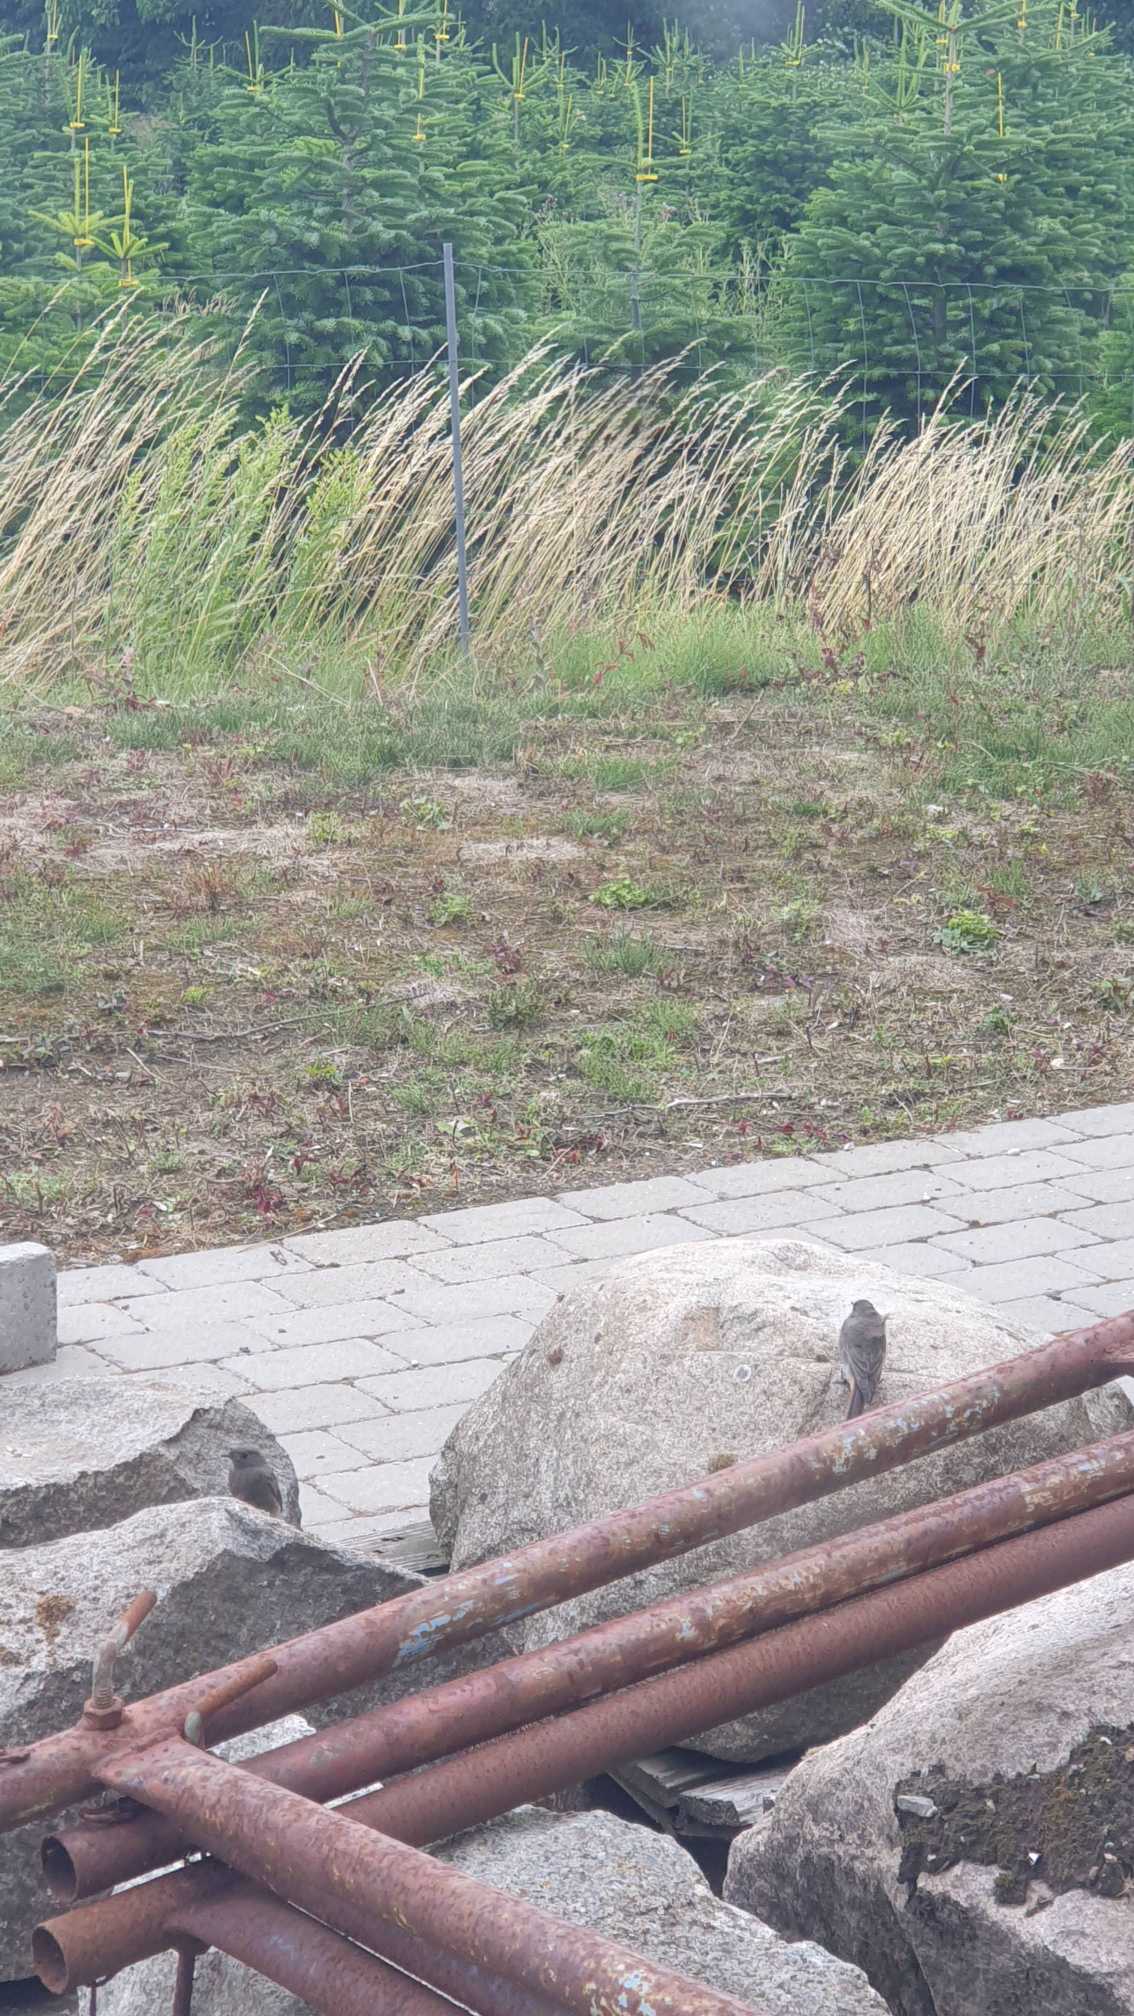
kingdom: Animalia
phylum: Chordata
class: Aves
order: Passeriformes
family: Muscicapidae
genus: Phoenicurus
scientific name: Phoenicurus ochruros
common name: Husrødstjert
